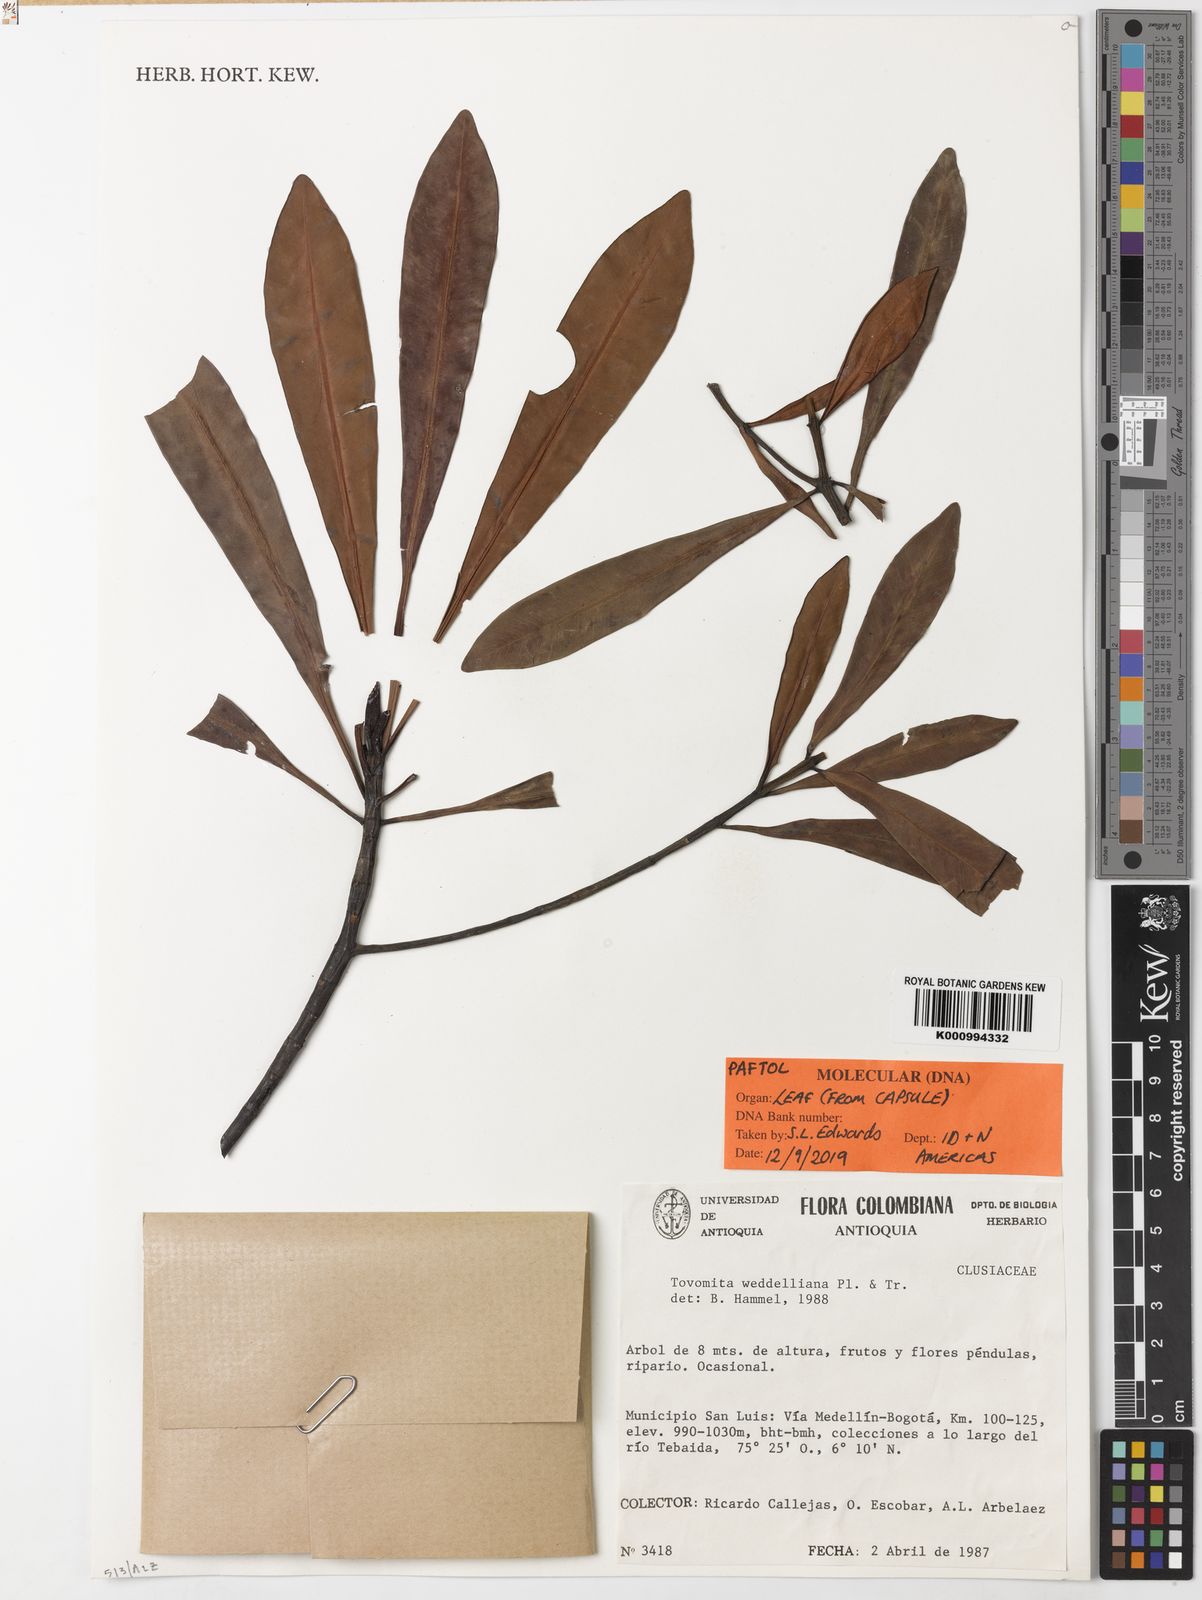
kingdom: Plantae
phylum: Tracheophyta
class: Magnoliopsida
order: Malpighiales
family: Clusiaceae
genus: Arawakia
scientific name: Arawakia
